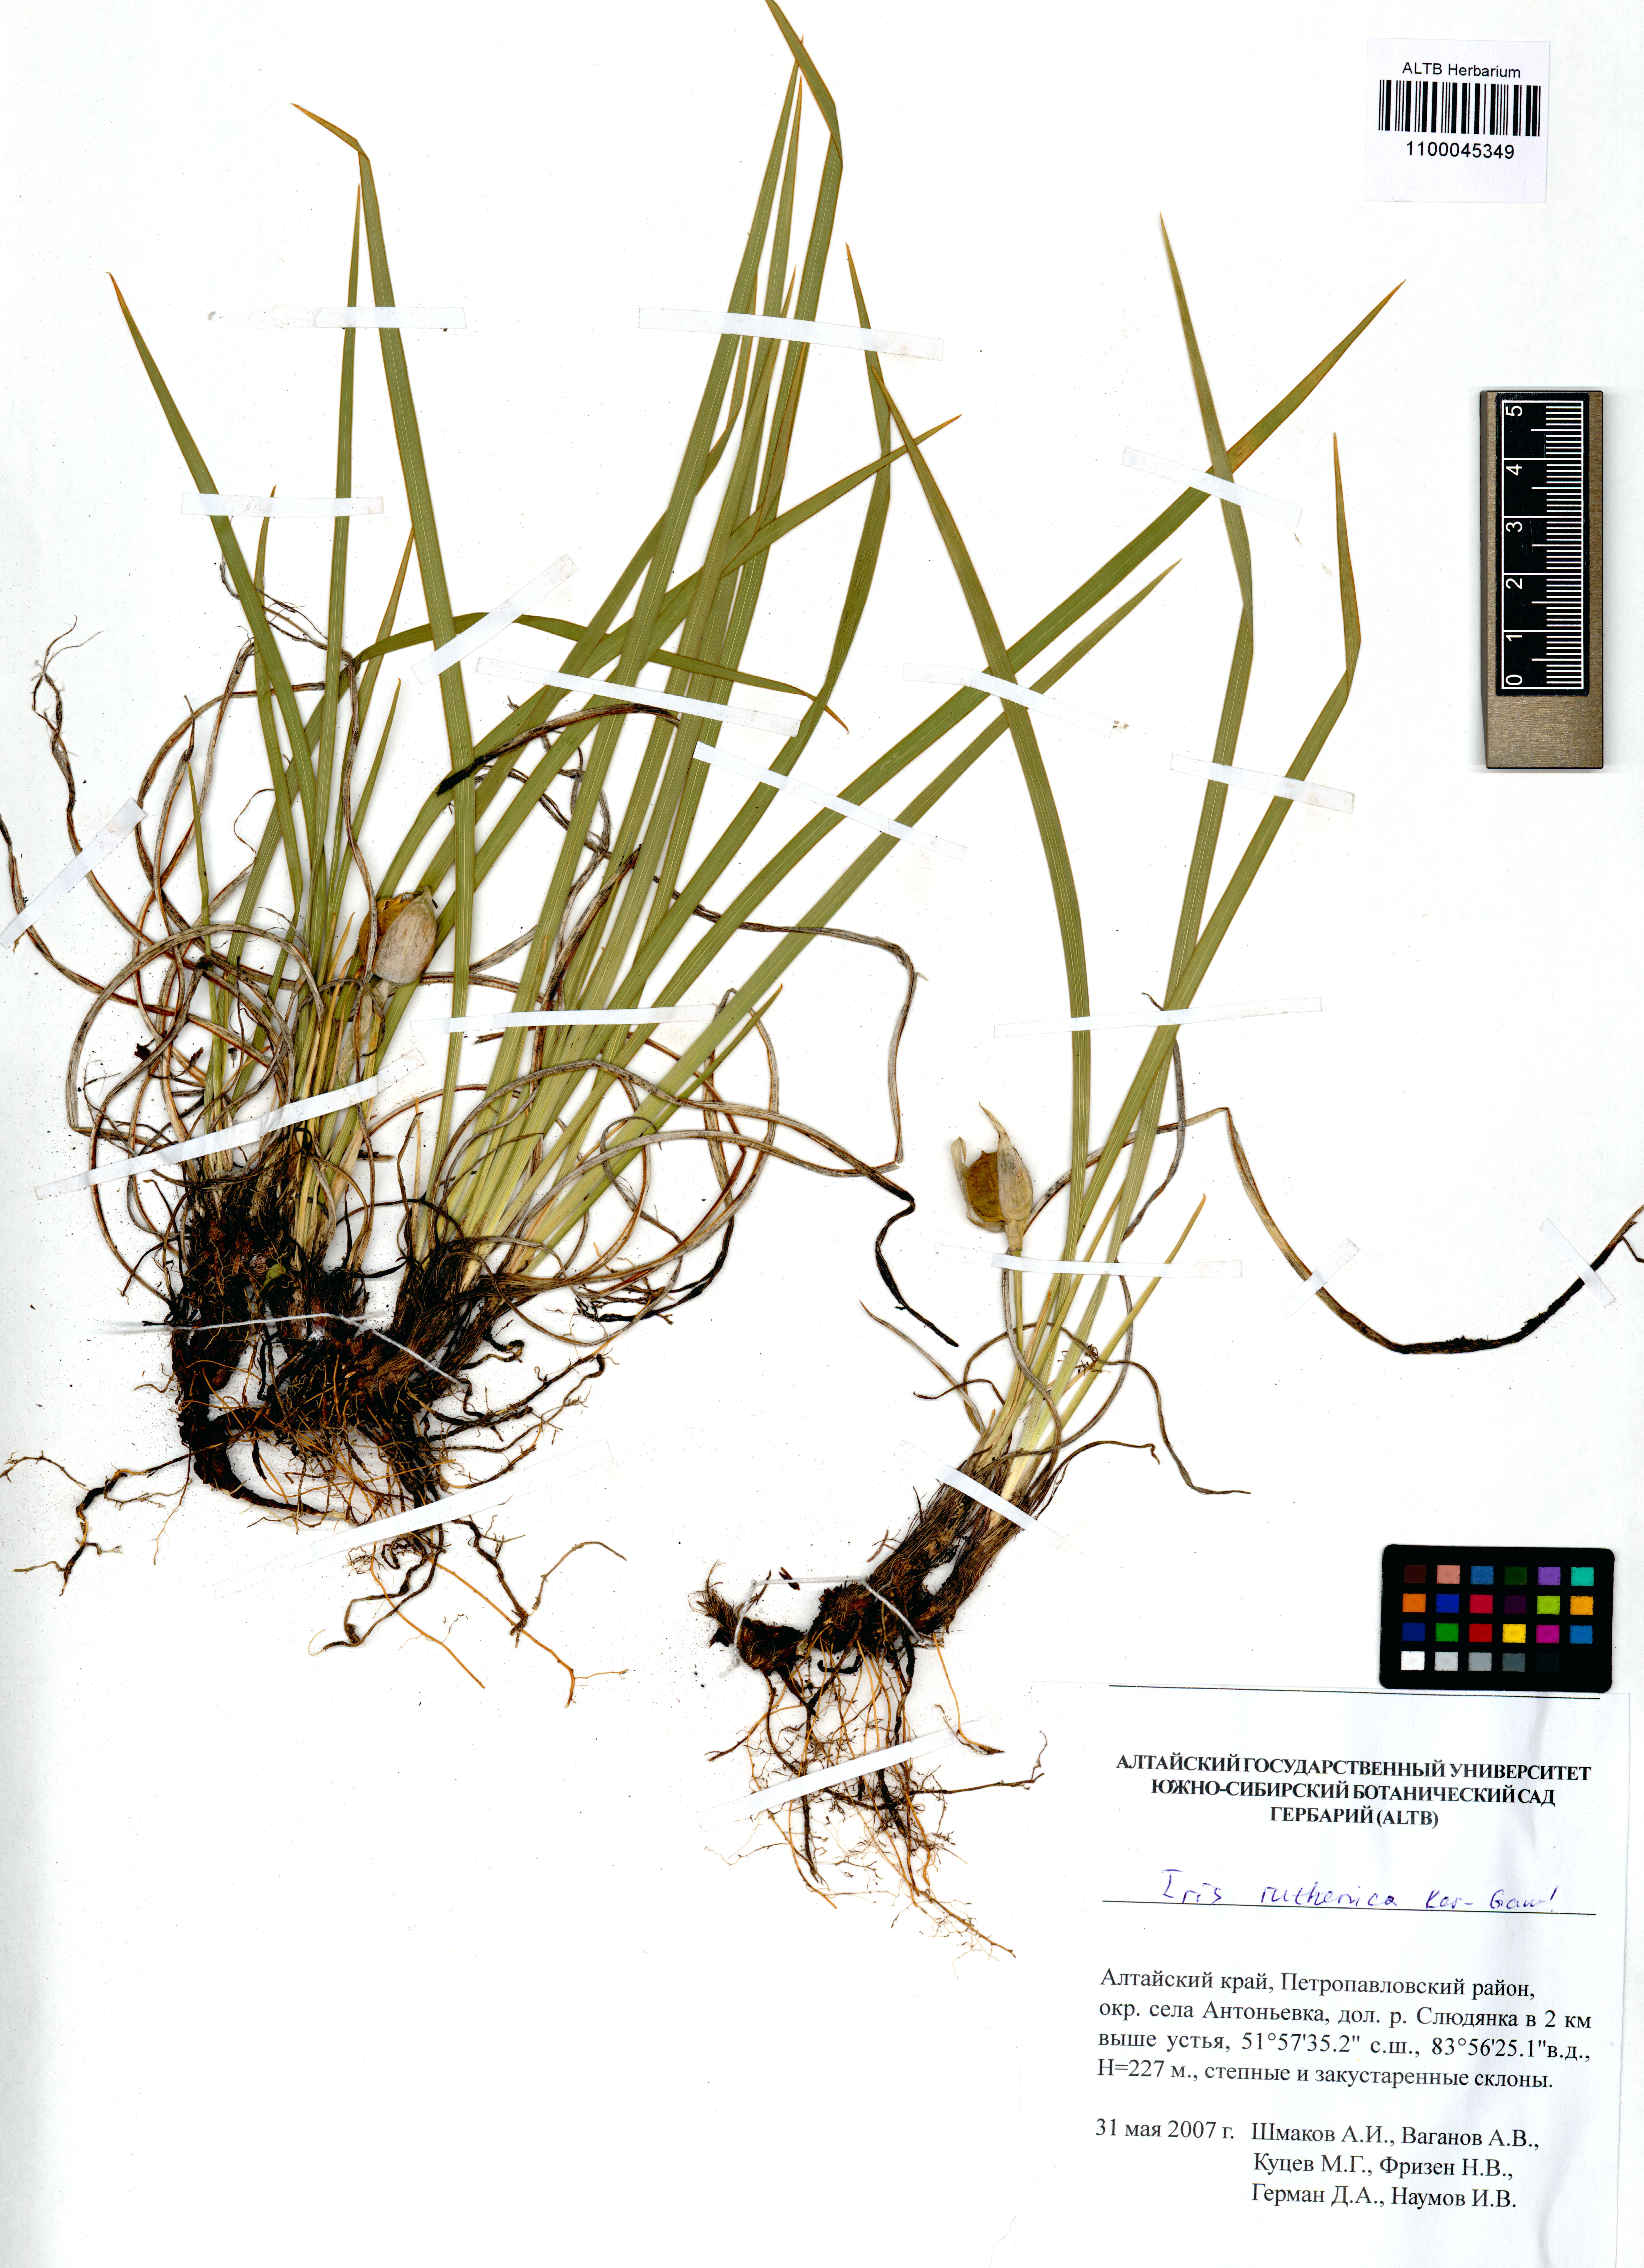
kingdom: Plantae
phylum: Tracheophyta
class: Liliopsida
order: Asparagales
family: Iridaceae
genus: Iris
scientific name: Iris ruthenica
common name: Purple-bract iris
